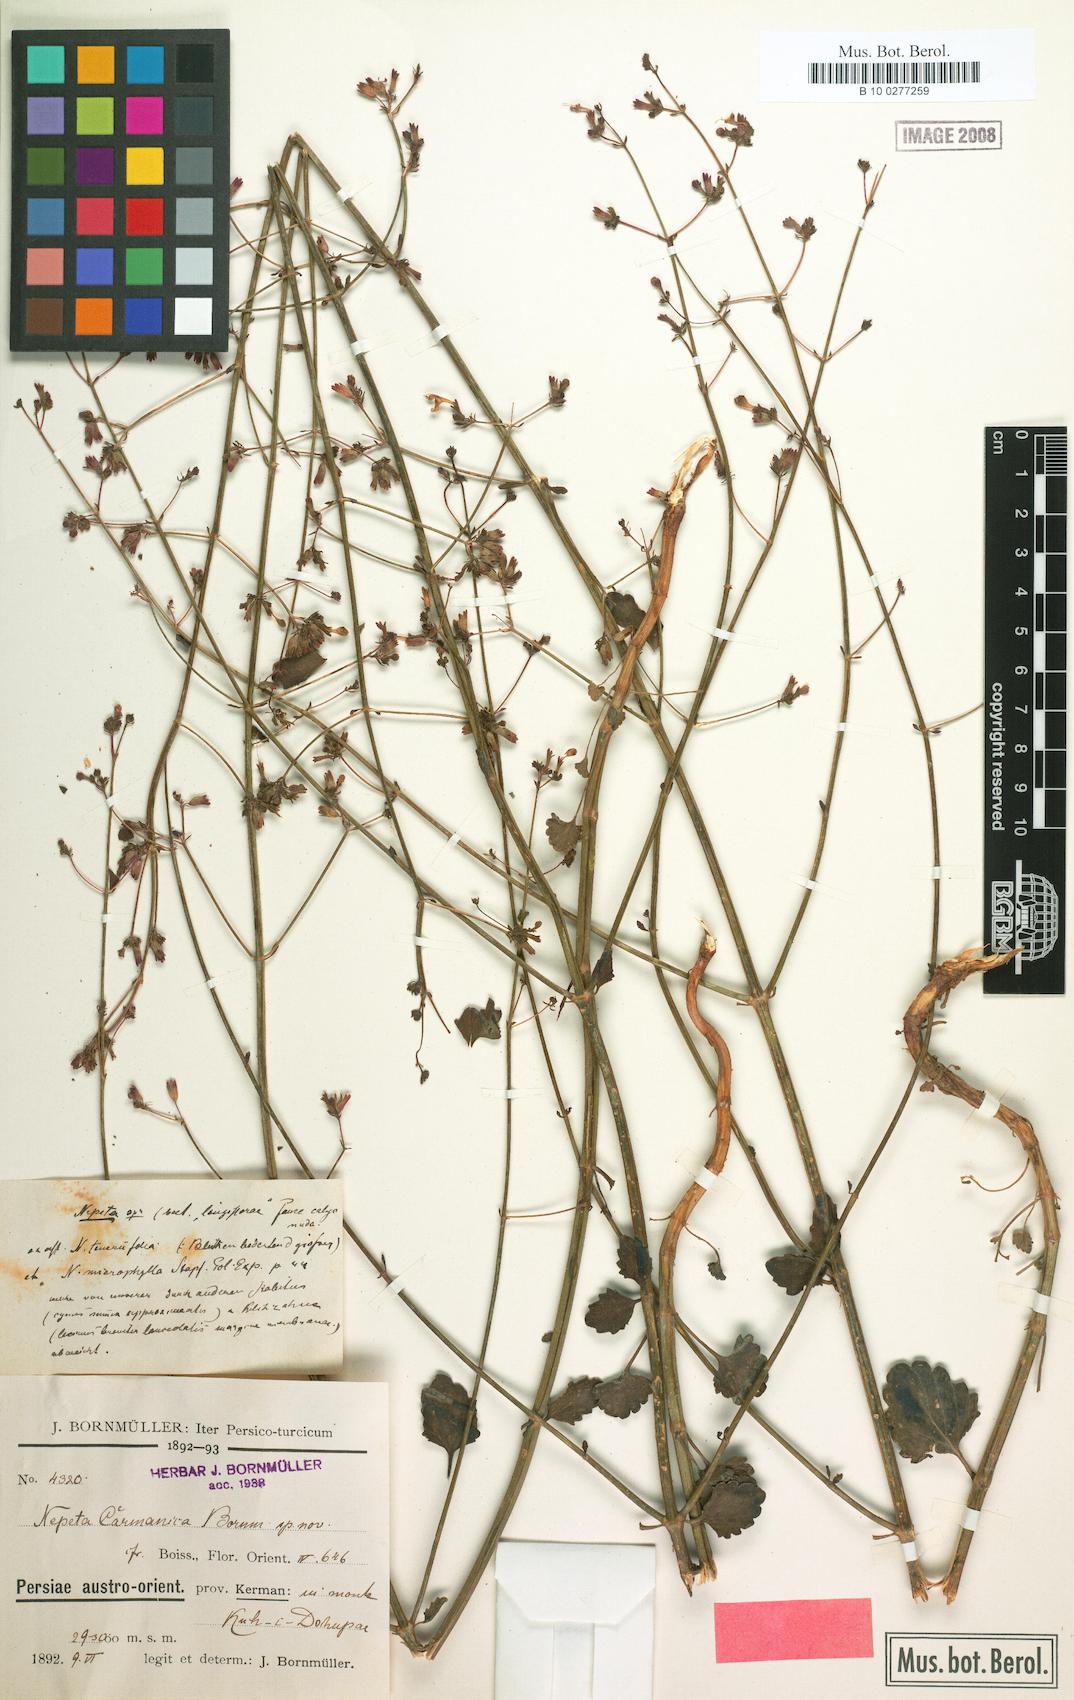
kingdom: Plantae
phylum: Tracheophyta
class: Magnoliopsida
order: Lamiales
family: Lamiaceae
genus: Nepeta
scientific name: Nepeta teucriifolia
